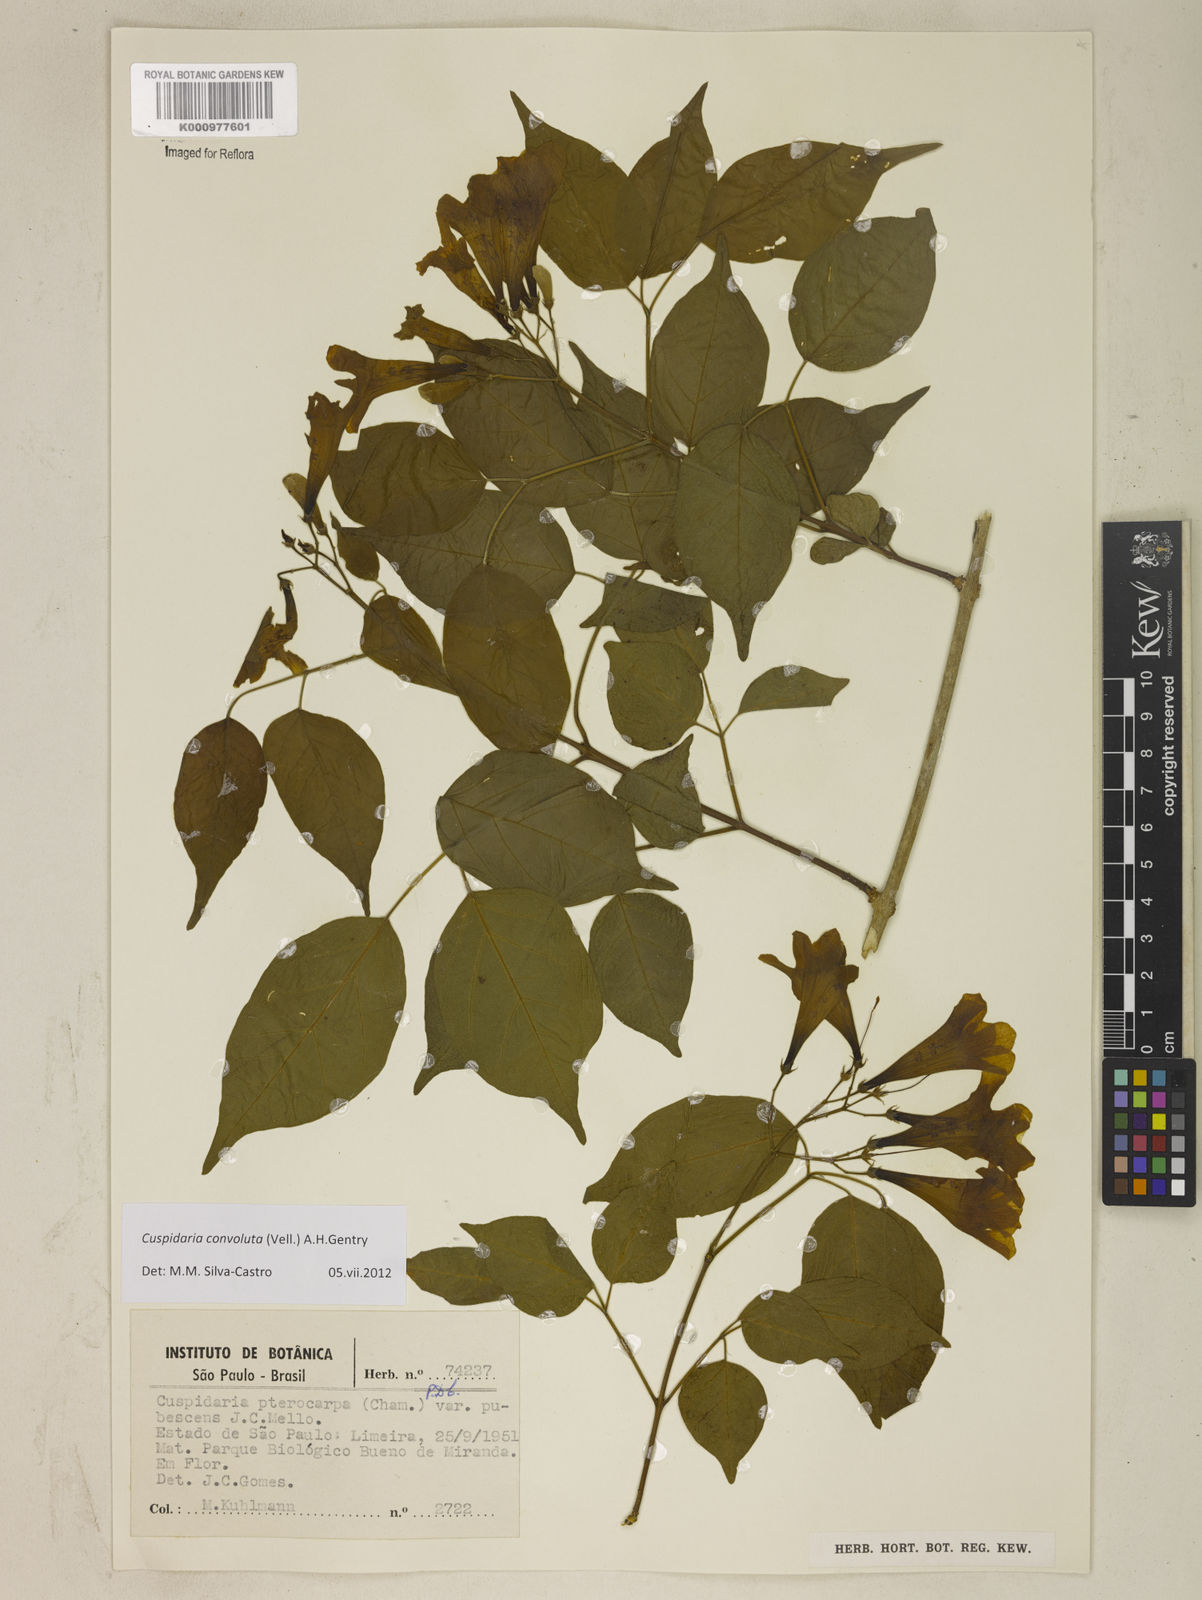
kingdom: Plantae
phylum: Tracheophyta
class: Magnoliopsida
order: Lamiales
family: Bignoniaceae
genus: Cuspidaria
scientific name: Cuspidaria convoluta
